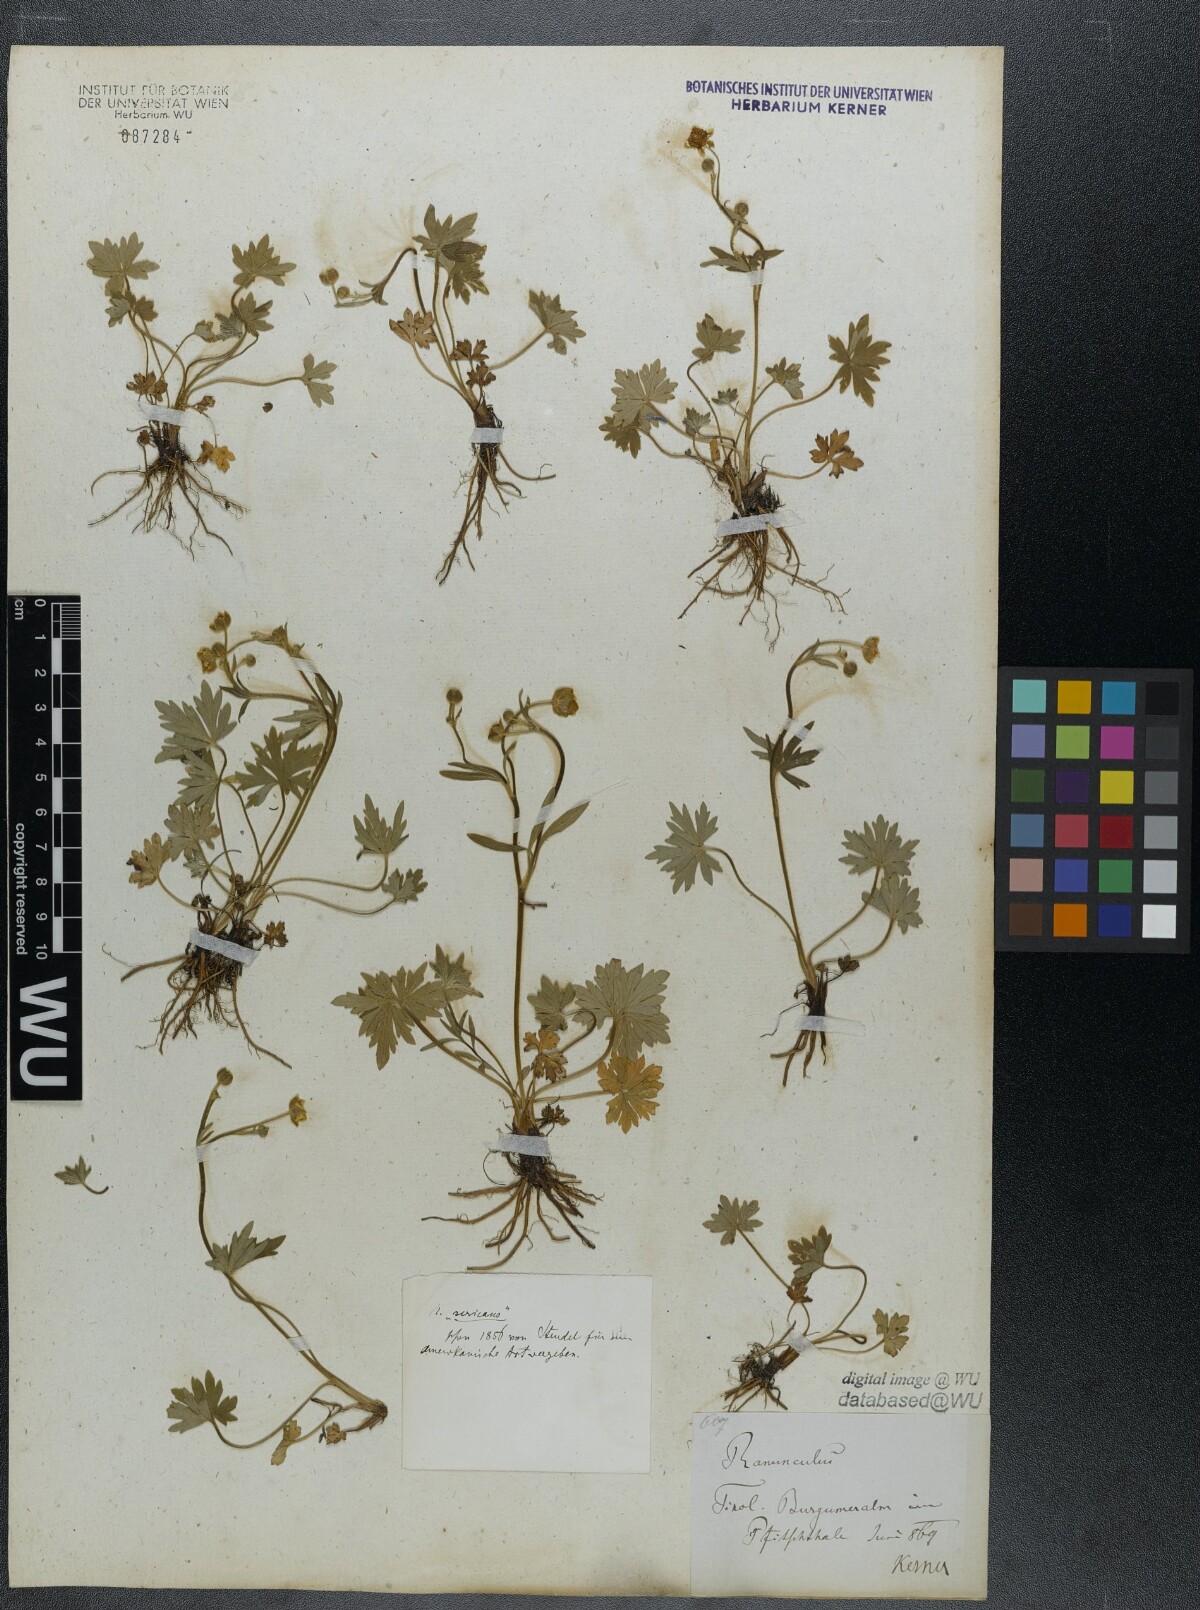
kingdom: Plantae
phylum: Tracheophyta
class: Magnoliopsida
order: Ranunculales
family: Ranunculaceae
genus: Ranunculus
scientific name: Ranunculus acris
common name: Meadow buttercup
